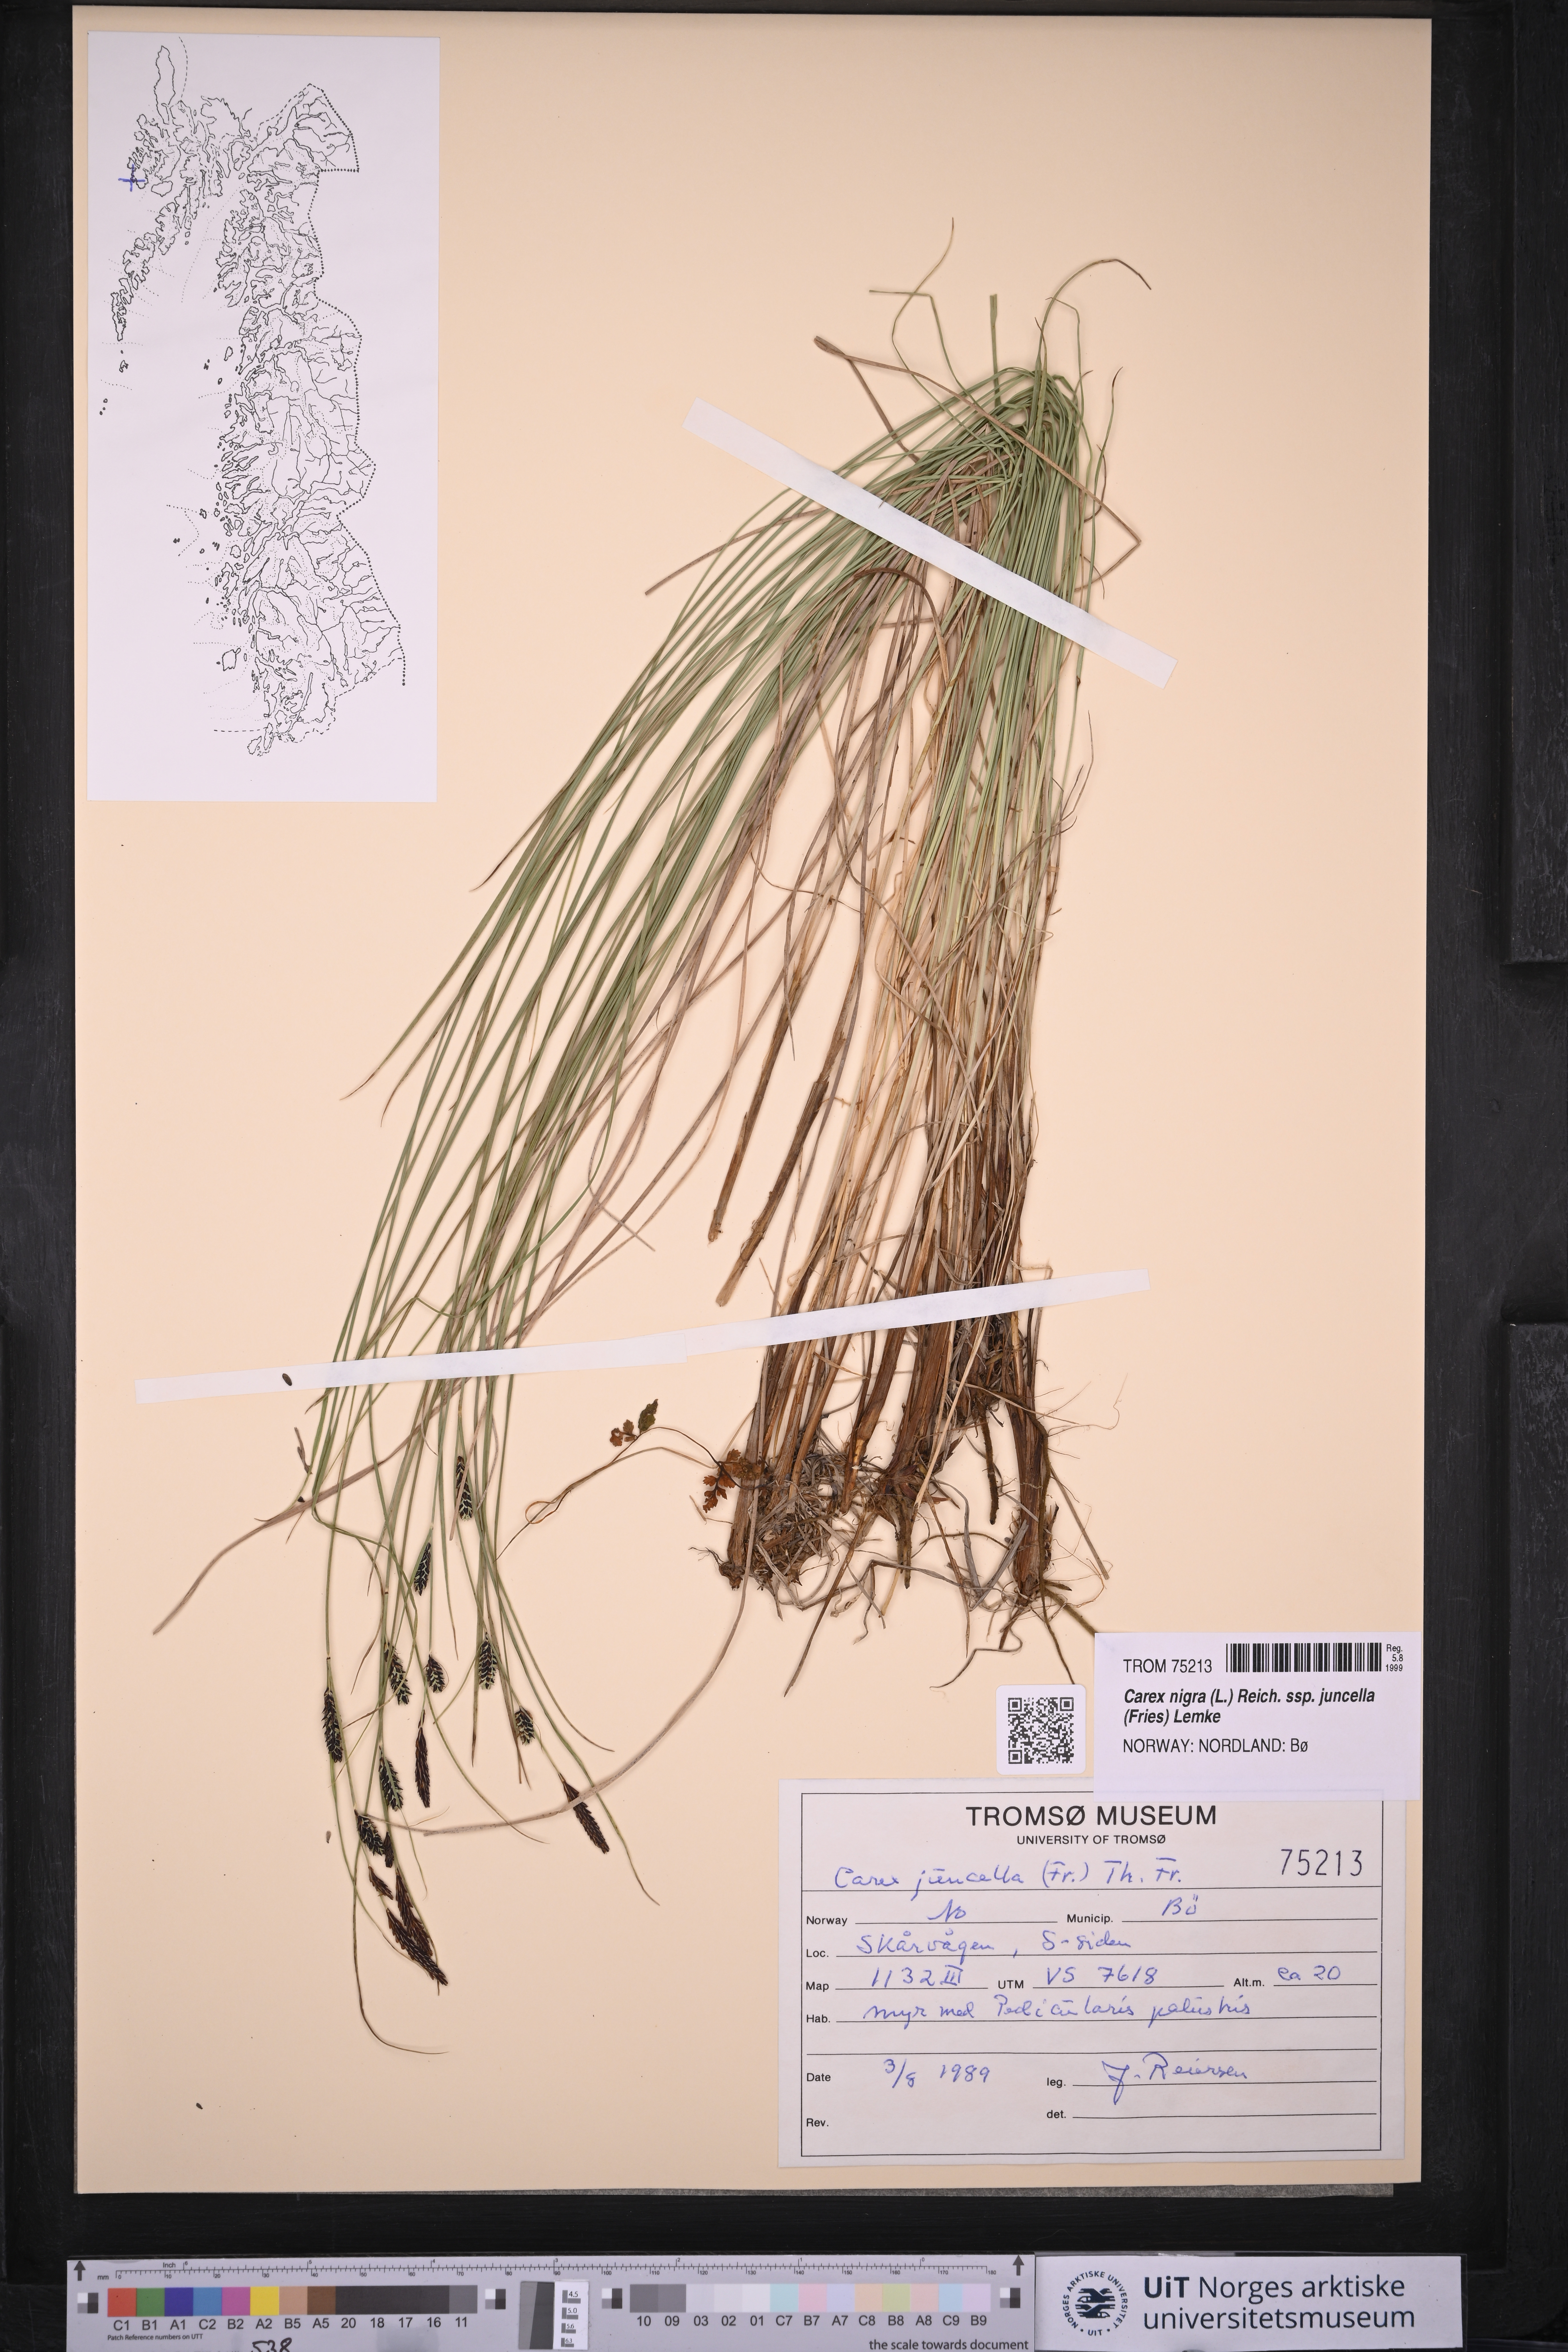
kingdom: Plantae
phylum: Tracheophyta
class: Liliopsida
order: Poales
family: Cyperaceae
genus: Carex
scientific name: Carex nigra
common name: Common sedge
